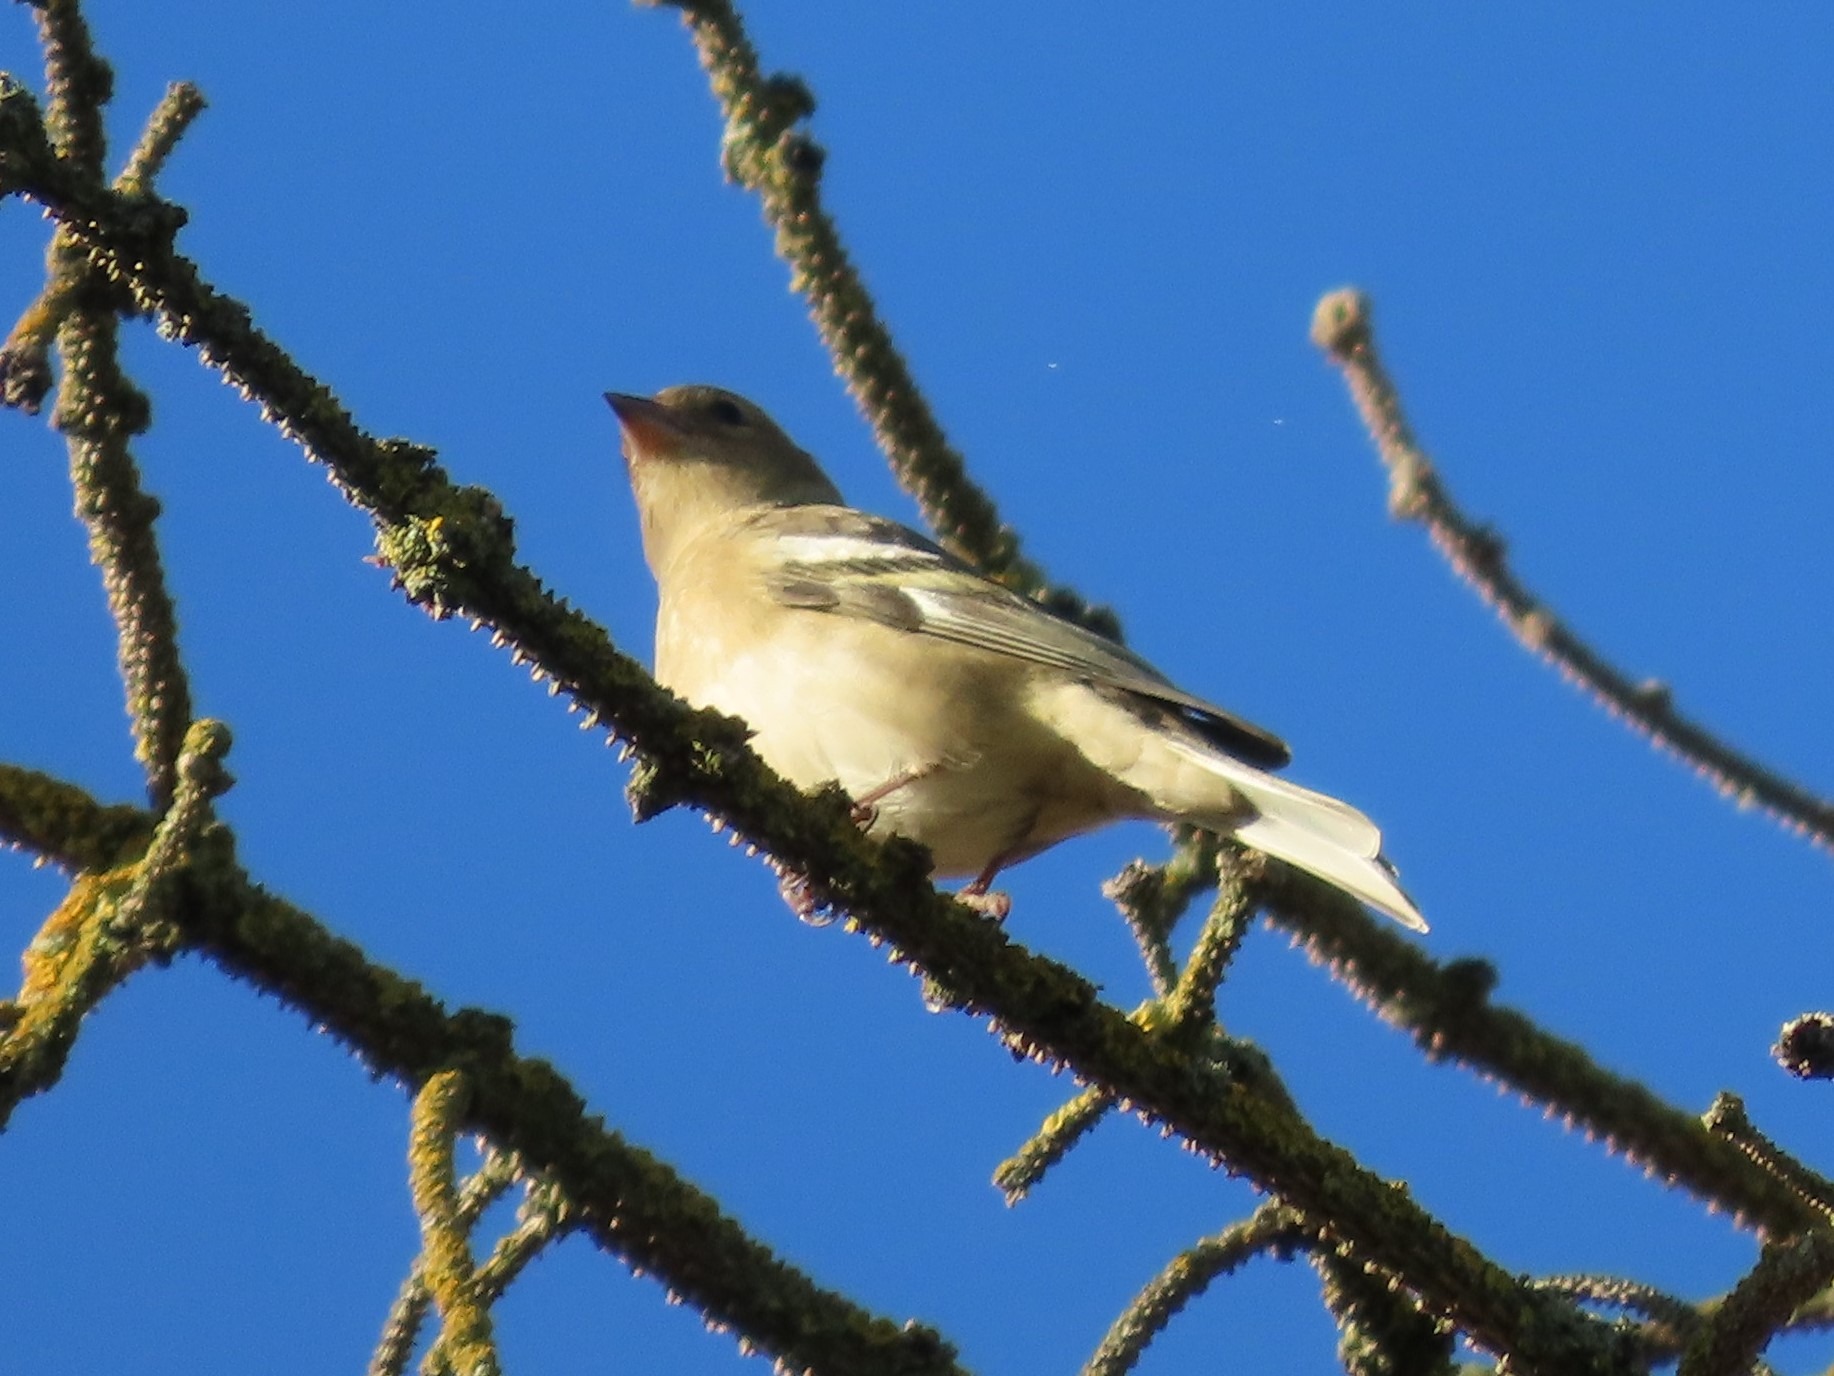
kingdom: Animalia
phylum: Chordata
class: Aves
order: Passeriformes
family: Fringillidae
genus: Fringilla
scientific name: Fringilla coelebs
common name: Bogfinke
